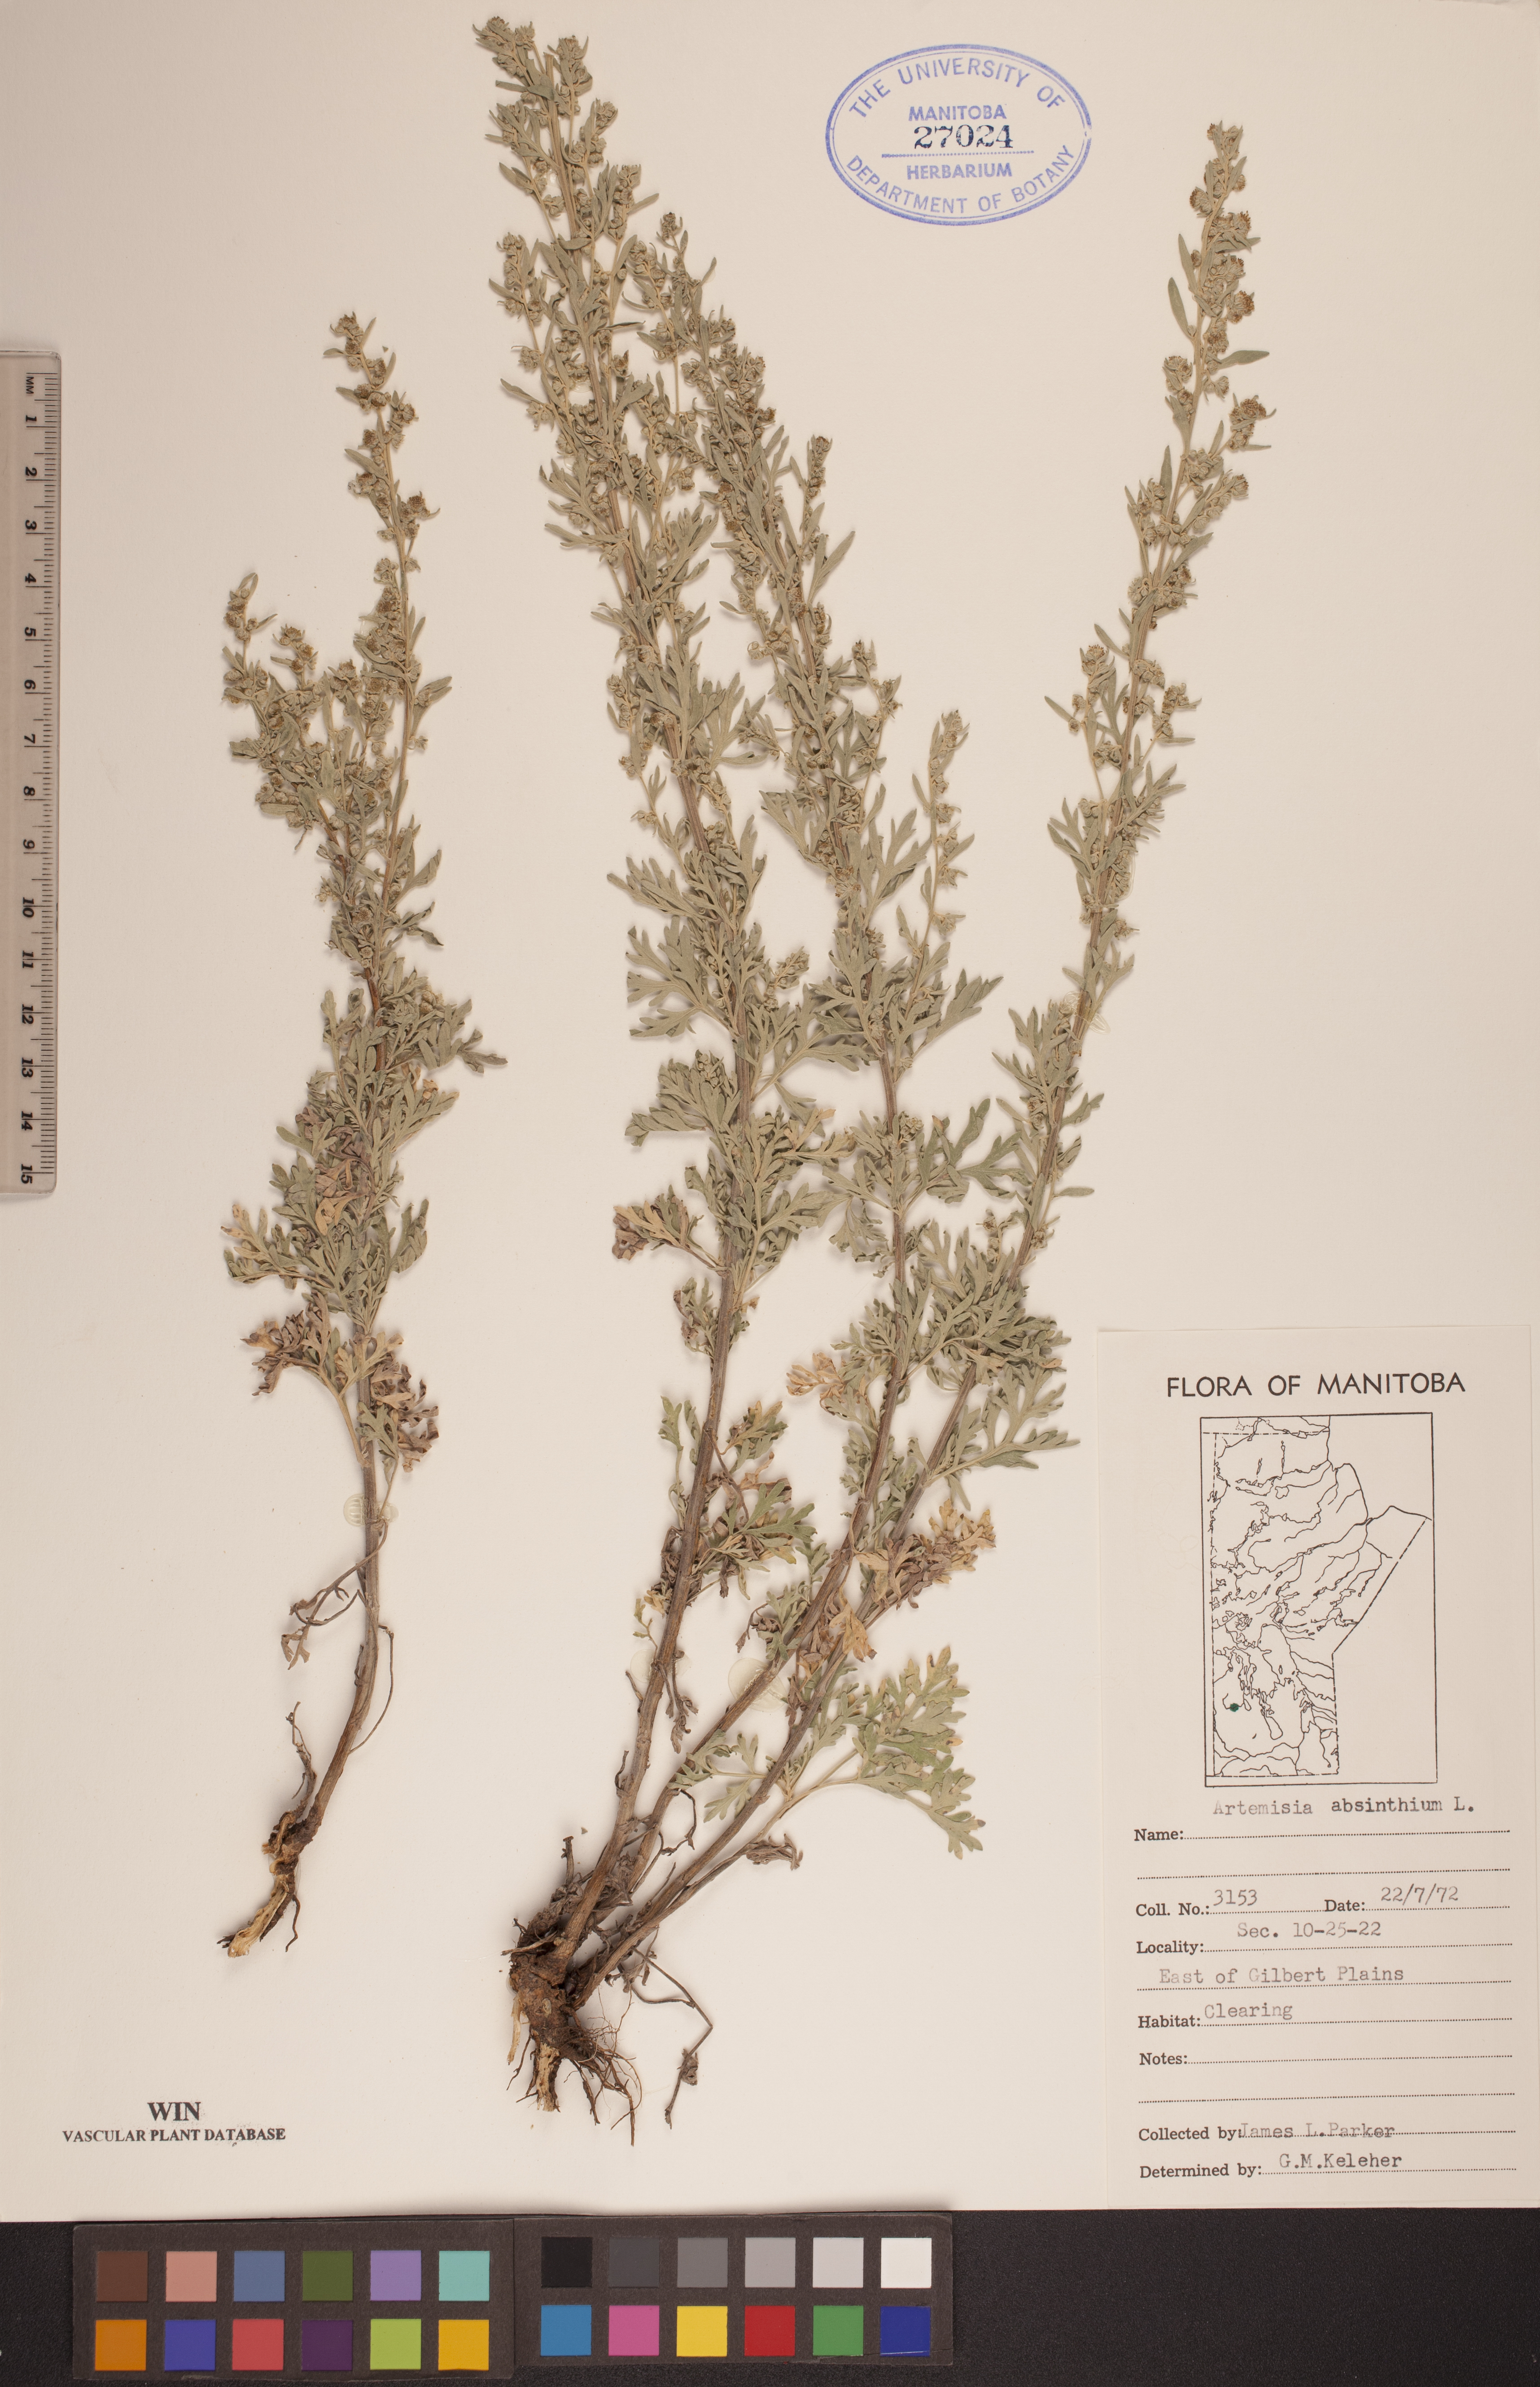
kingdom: Plantae
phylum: Tracheophyta
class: Magnoliopsida
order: Asterales
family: Asteraceae
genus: Artemisia
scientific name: Artemisia absinthium
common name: Wormwood
